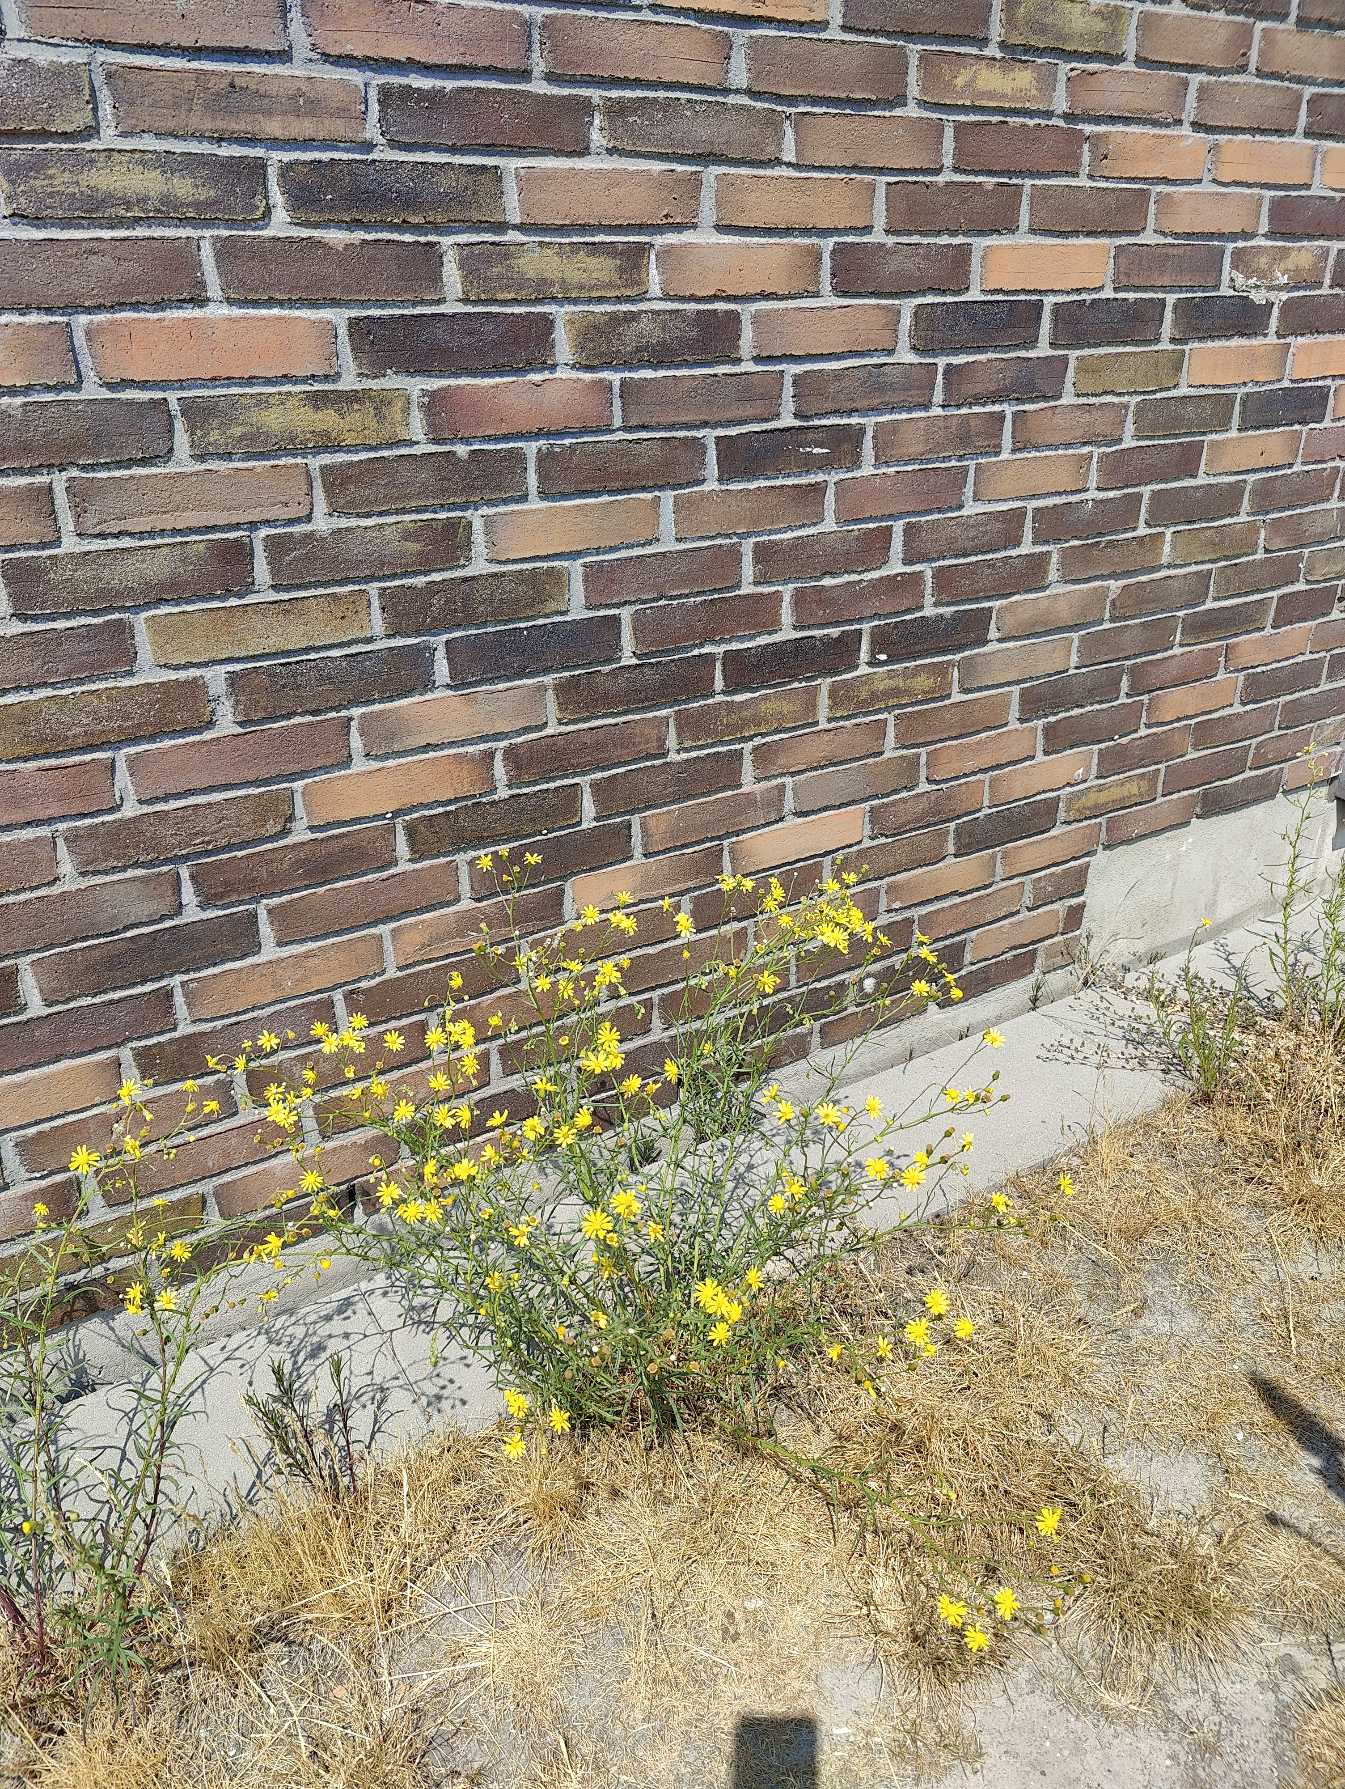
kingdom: Plantae
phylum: Tracheophyta
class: Magnoliopsida
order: Asterales
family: Asteraceae
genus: Senecio
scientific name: Senecio inaequidens
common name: Smalbladet brandbæger
